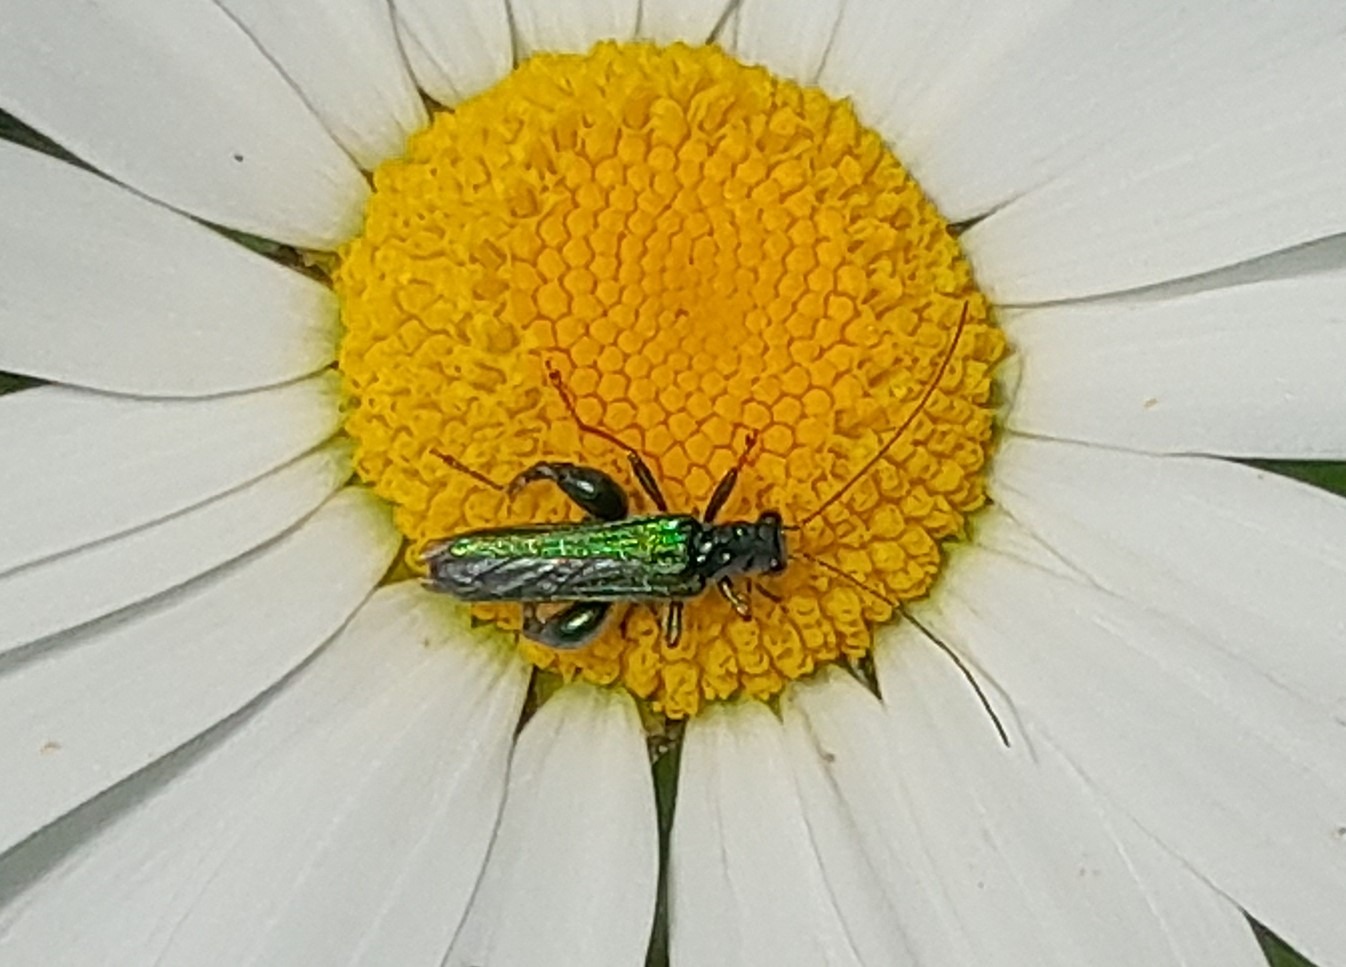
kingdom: Animalia
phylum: Arthropoda
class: Insecta
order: Coleoptera
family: Oedemeridae
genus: Oedemera
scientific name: Oedemera nobilis
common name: Tyklårssolbille
